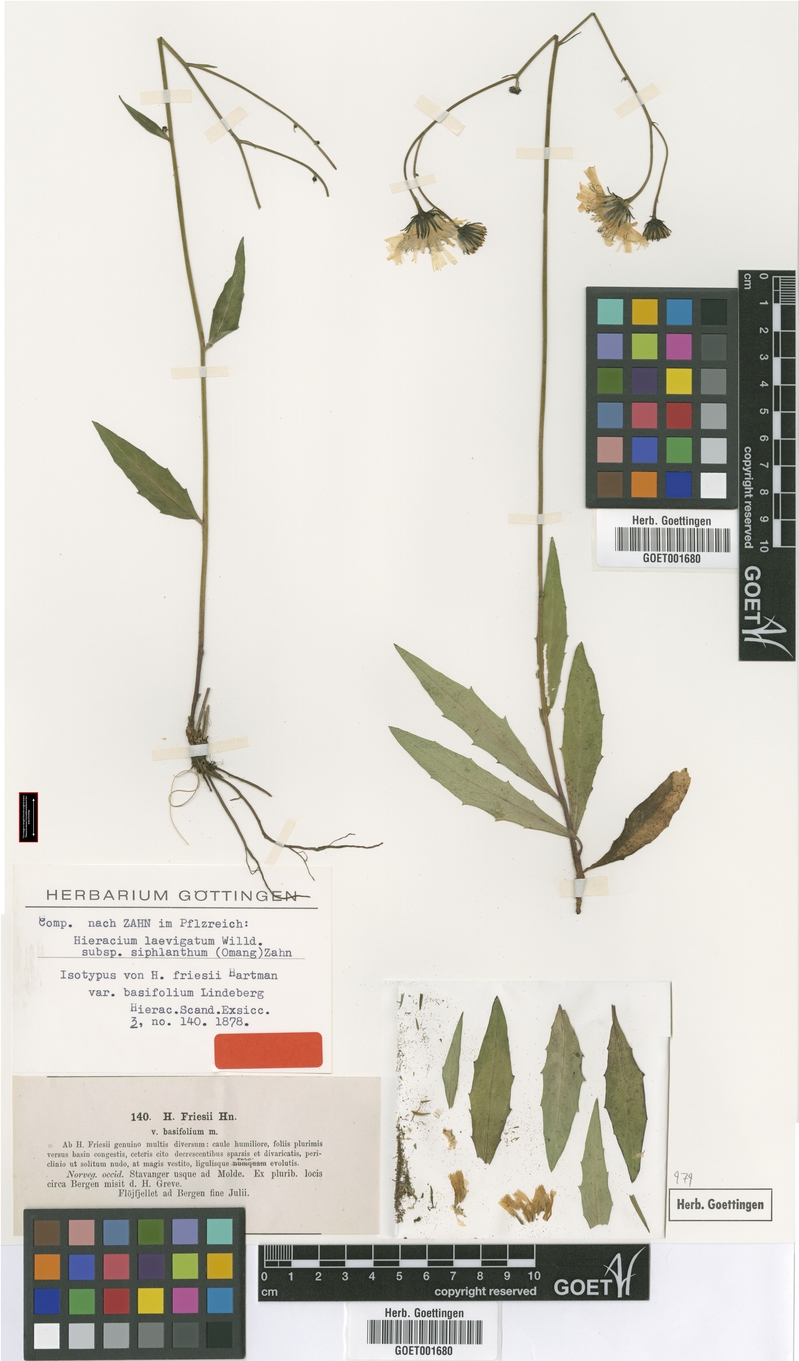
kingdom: Plantae
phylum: Tracheophyta
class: Magnoliopsida
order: Asterales
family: Asteraceae
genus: Hieracium
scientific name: Hieracium siphlanthum
